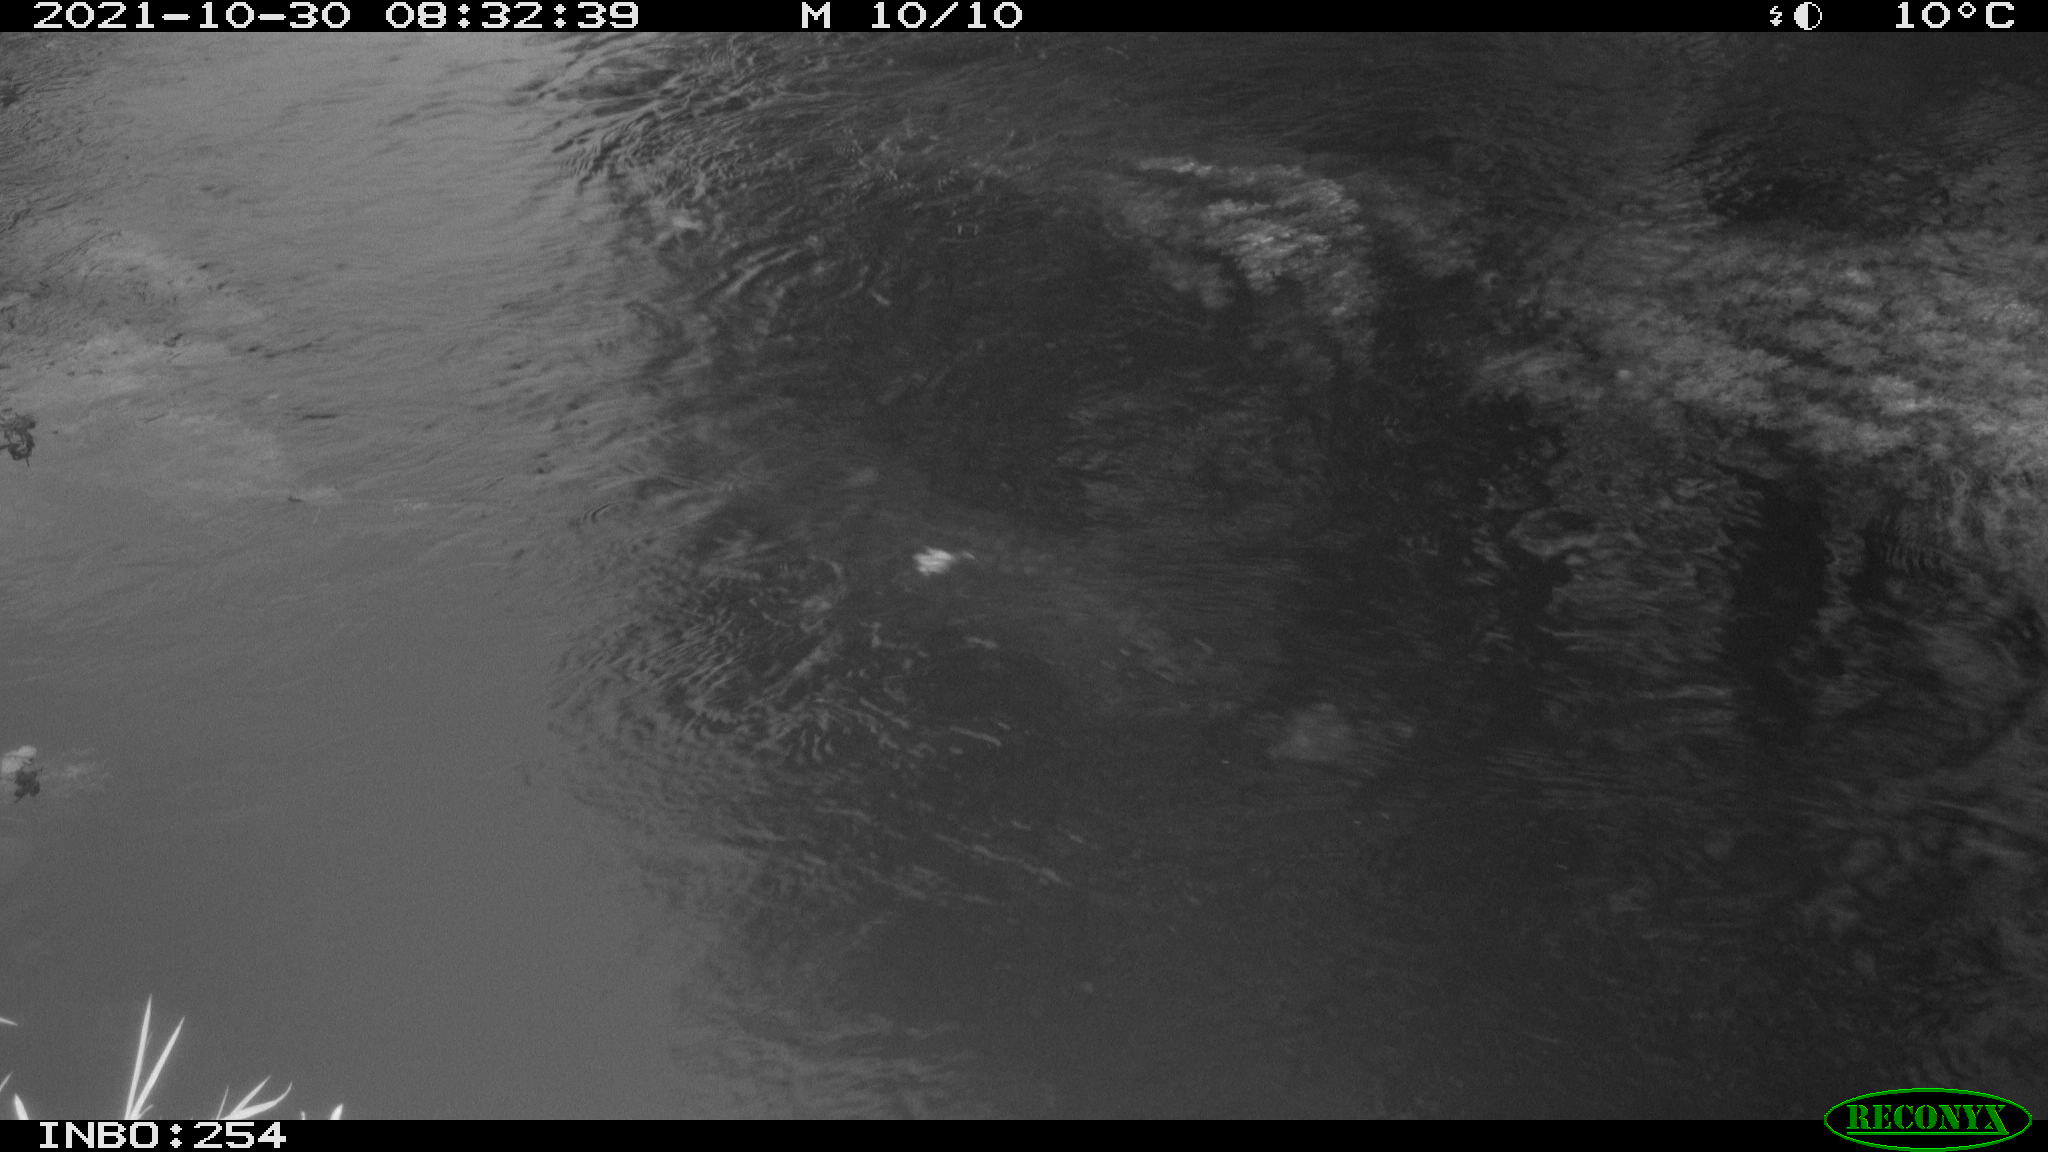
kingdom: Animalia
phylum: Chordata
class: Aves
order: Gruiformes
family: Rallidae
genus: Gallinula
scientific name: Gallinula chloropus
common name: Common moorhen
